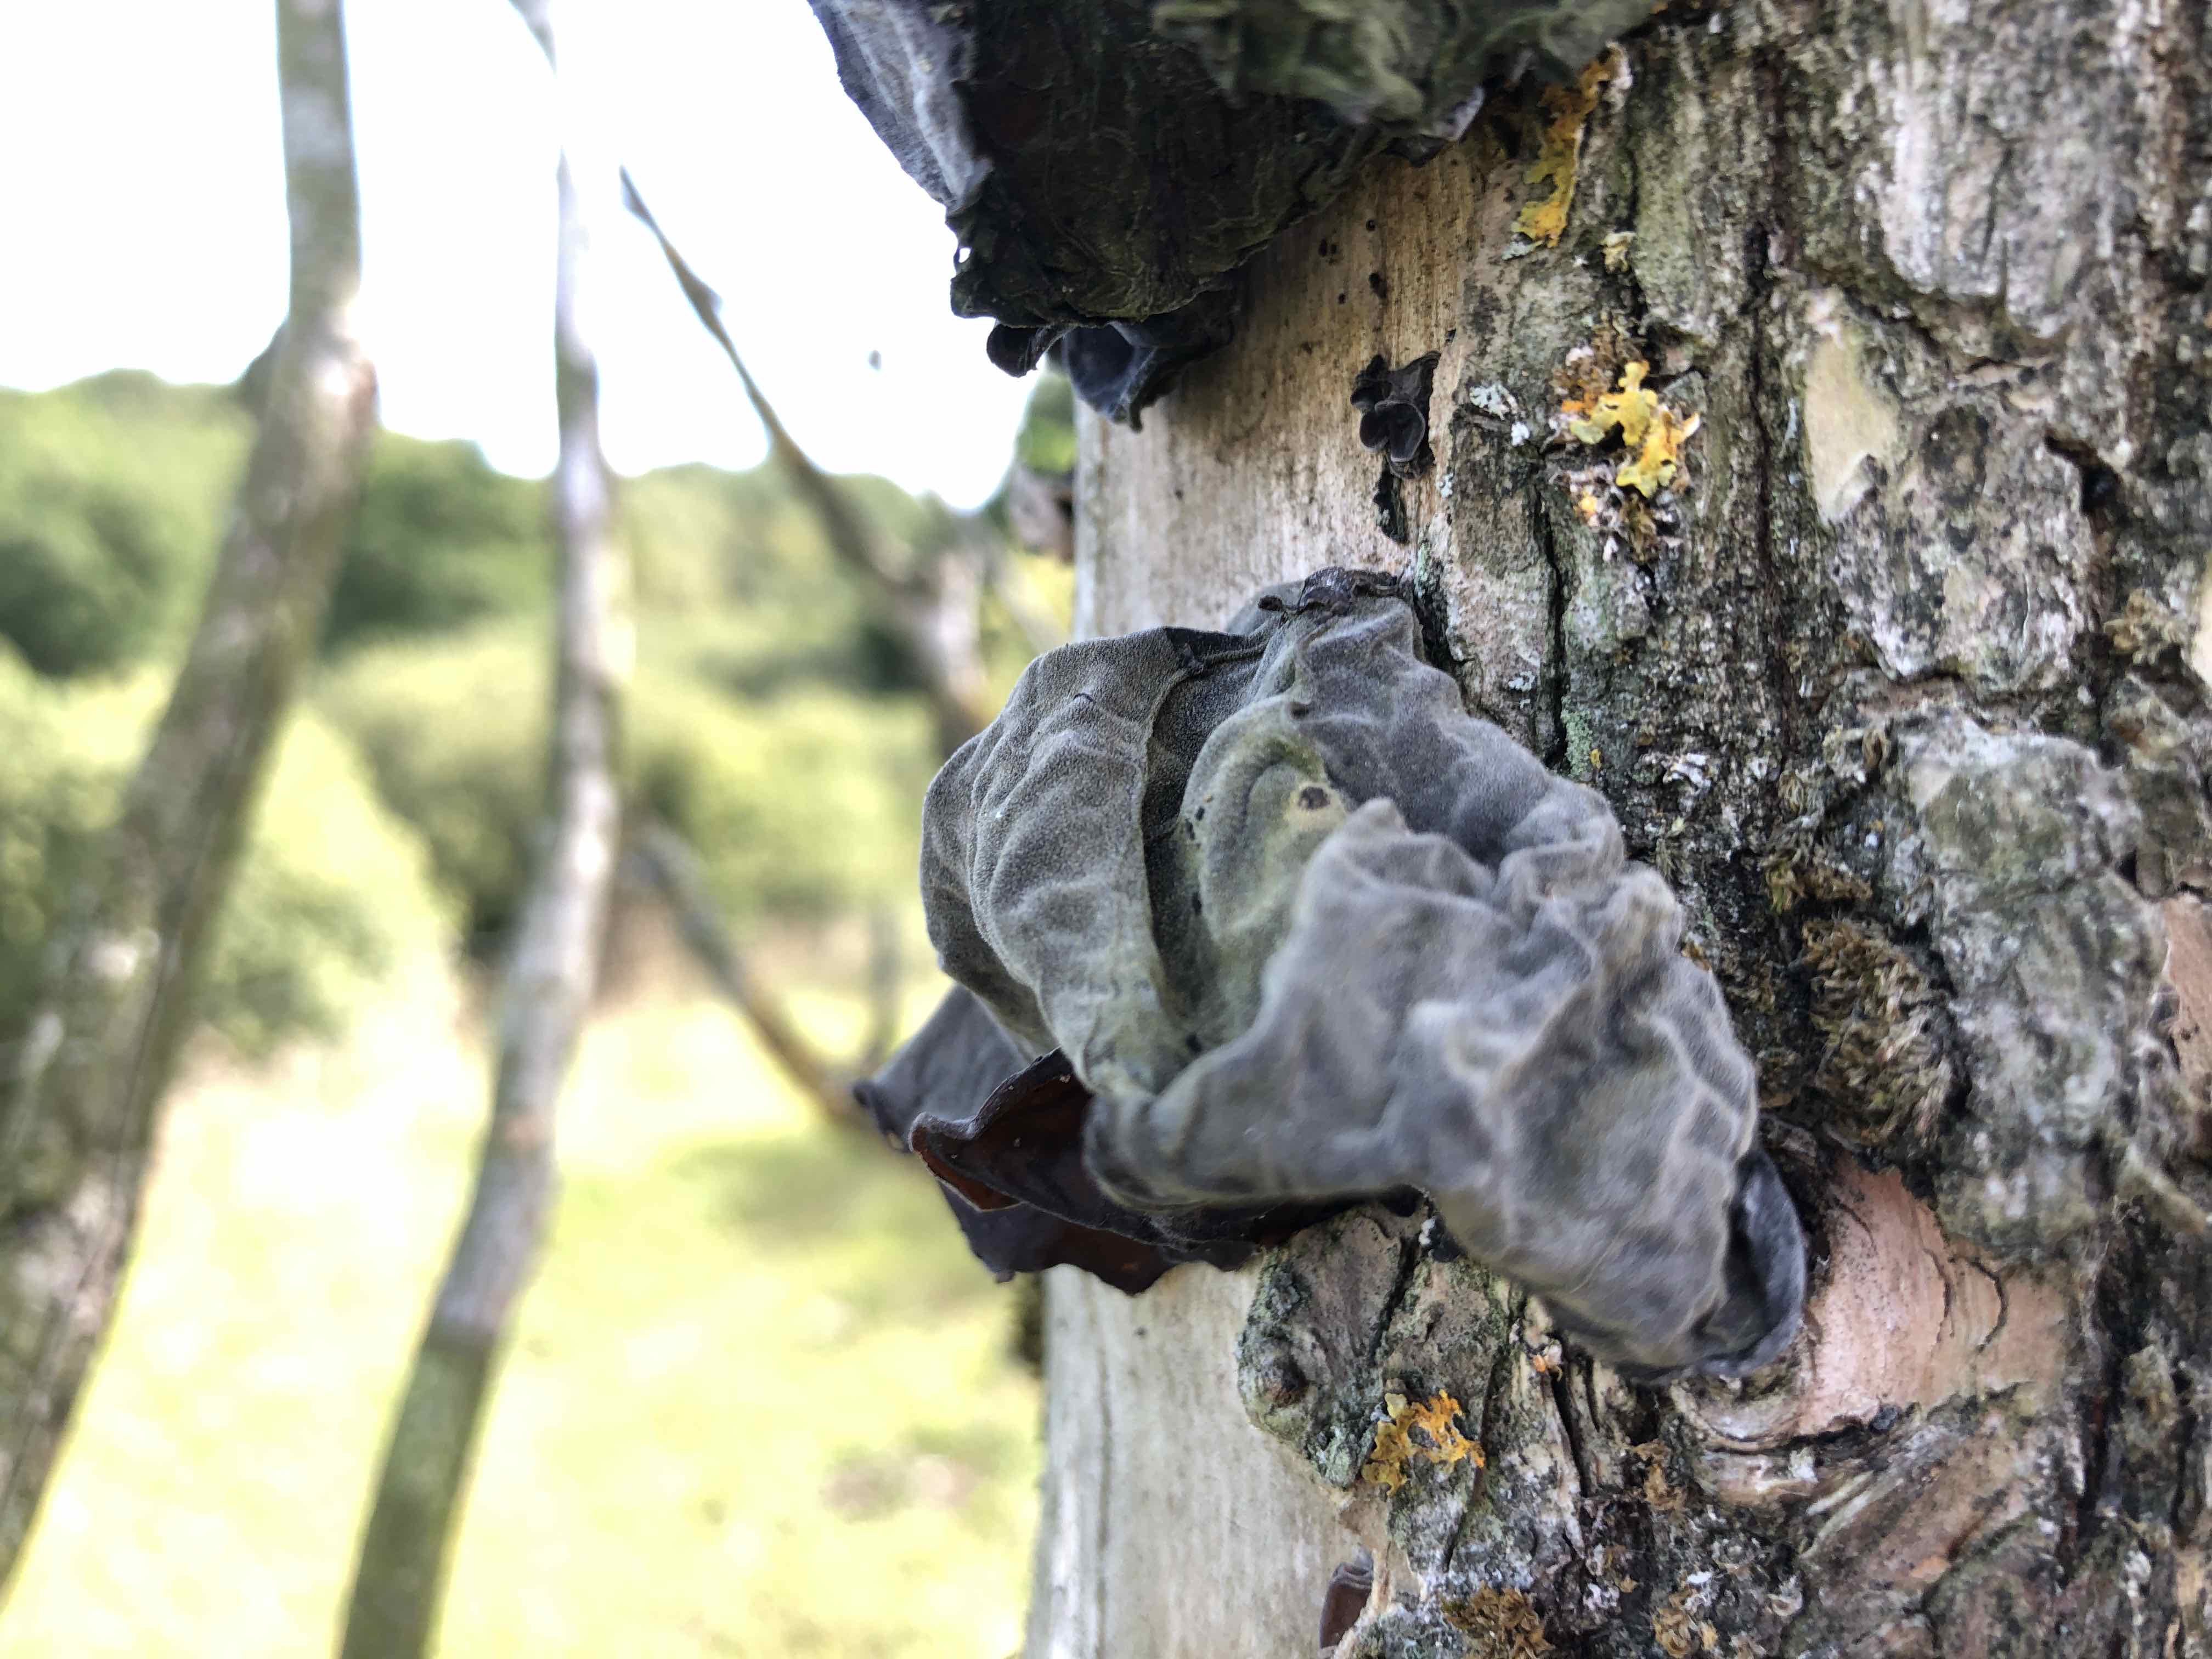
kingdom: Fungi
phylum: Basidiomycota
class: Agaricomycetes
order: Auriculariales
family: Auriculariaceae
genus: Auricularia
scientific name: Auricularia auricula-judae
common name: almindelig judasøre
